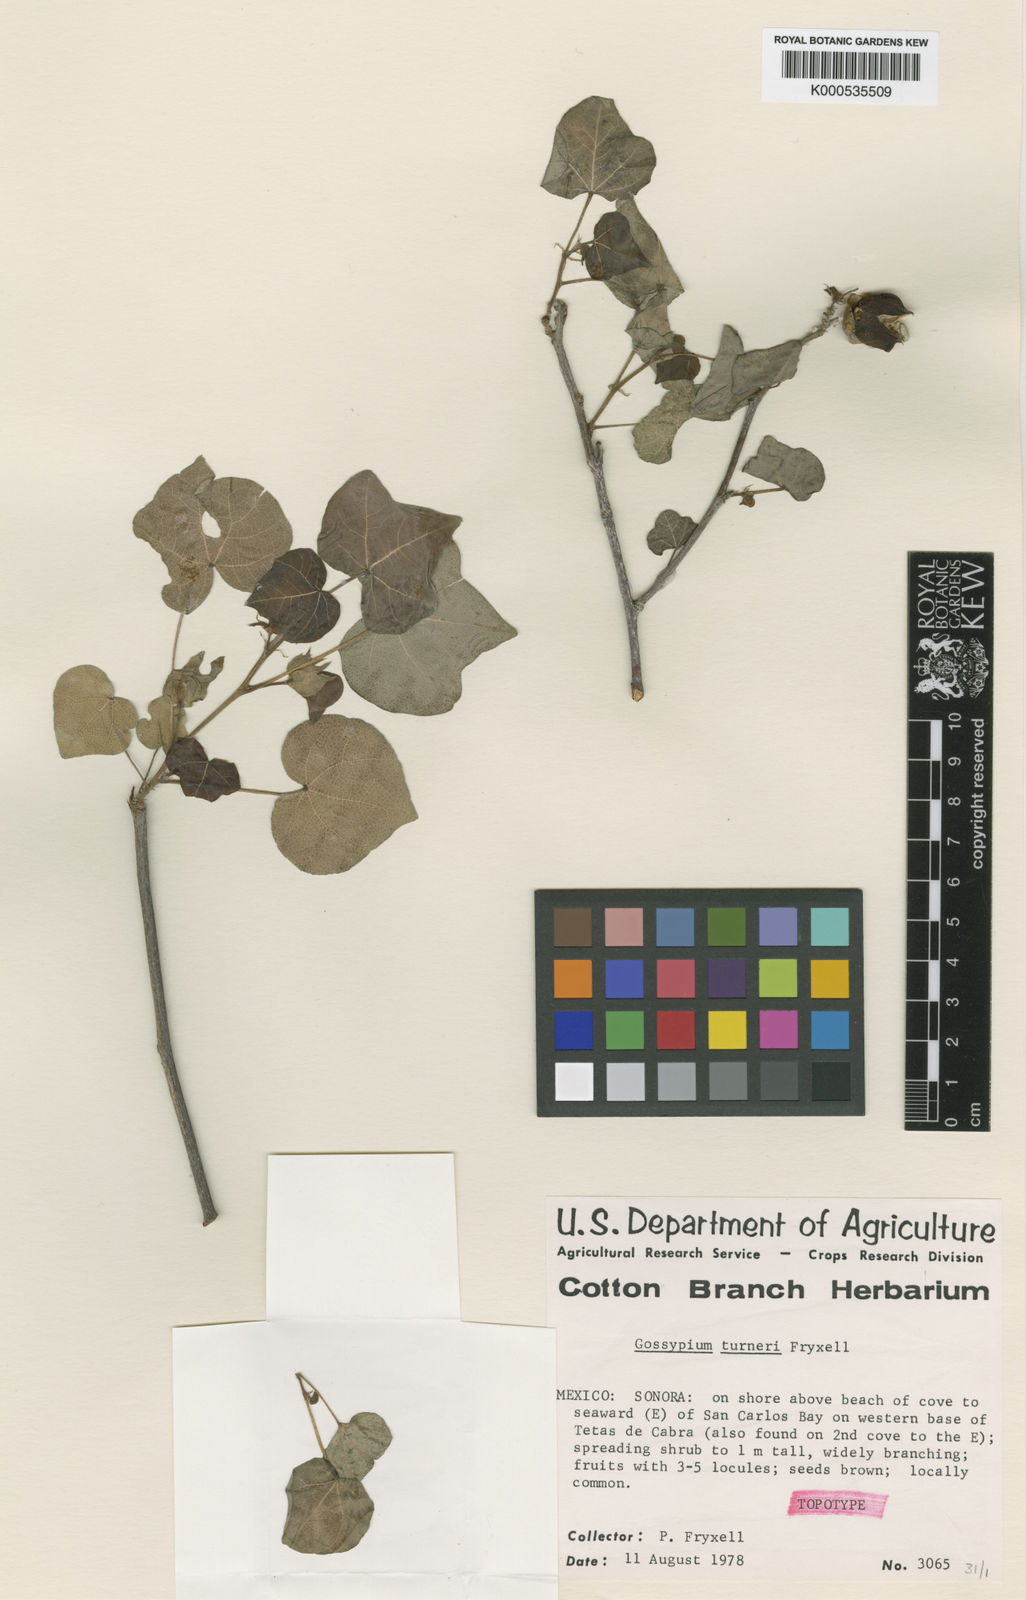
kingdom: Plantae
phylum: Tracheophyta
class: Magnoliopsida
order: Malvales
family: Malvaceae
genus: Gossypium
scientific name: Gossypium turneri
